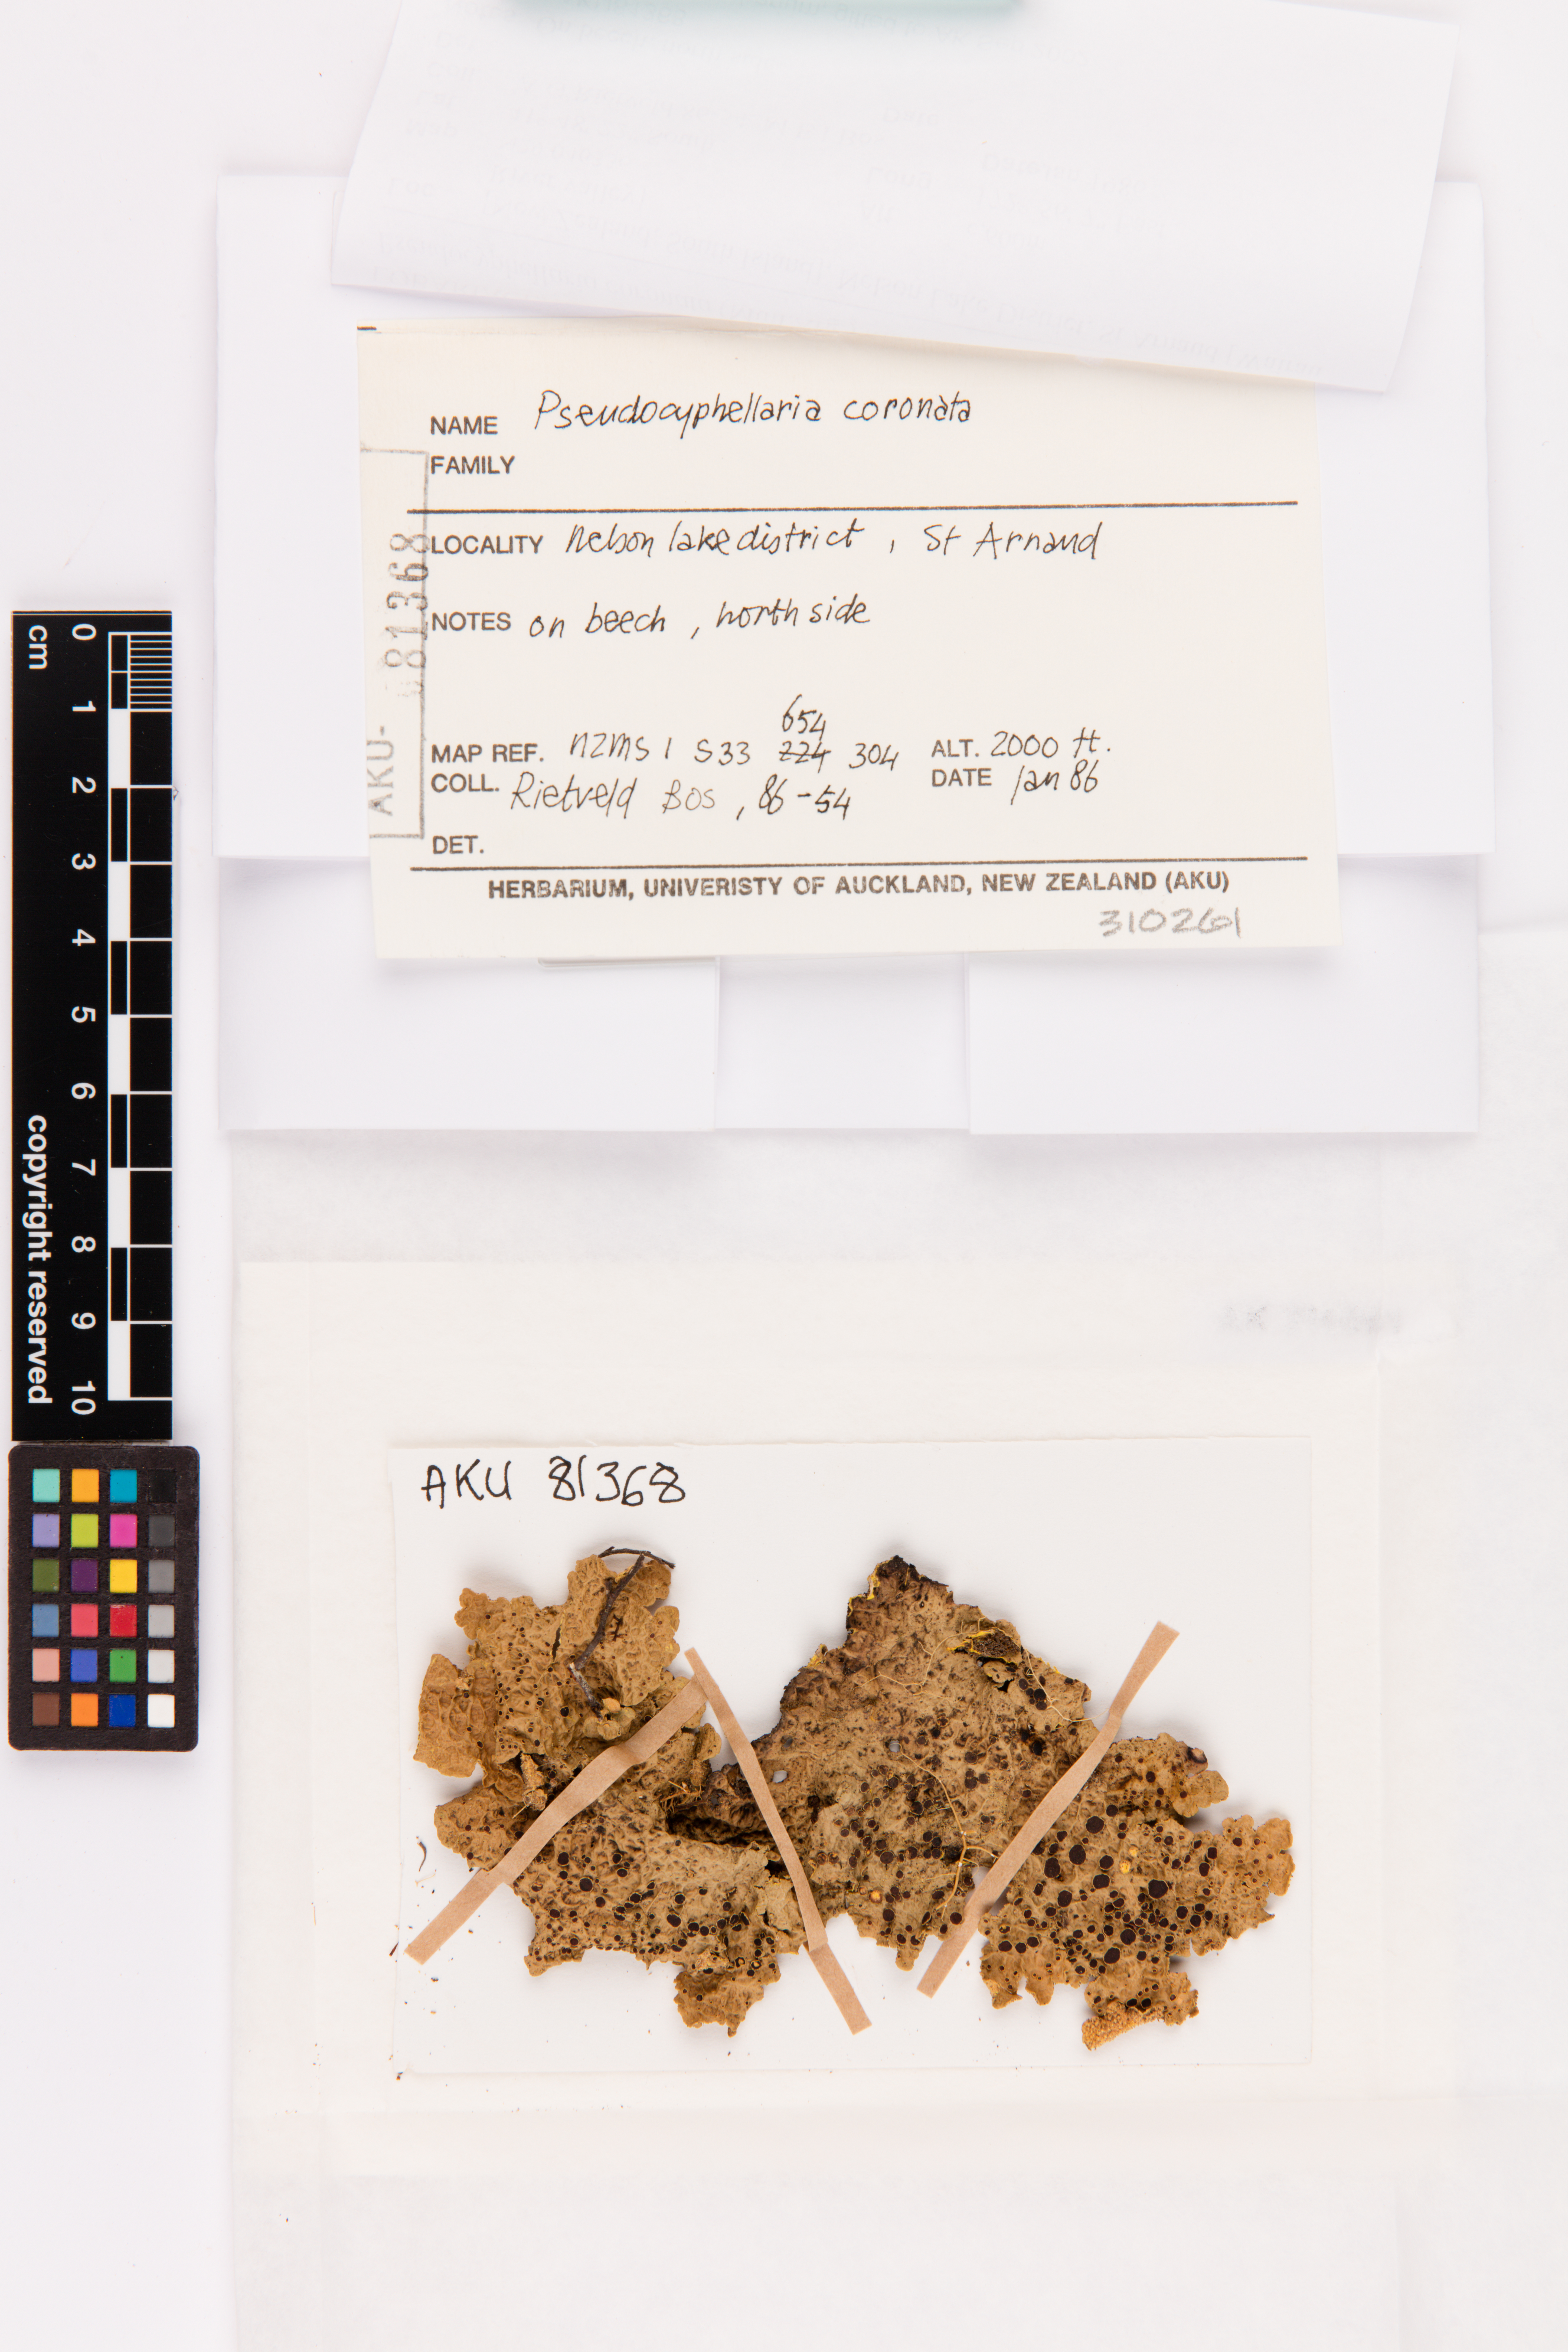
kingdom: Fungi
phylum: Ascomycota
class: Lecanoromycetes
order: Peltigerales
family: Lobariaceae
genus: Yarrumia
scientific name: Yarrumia coronata
